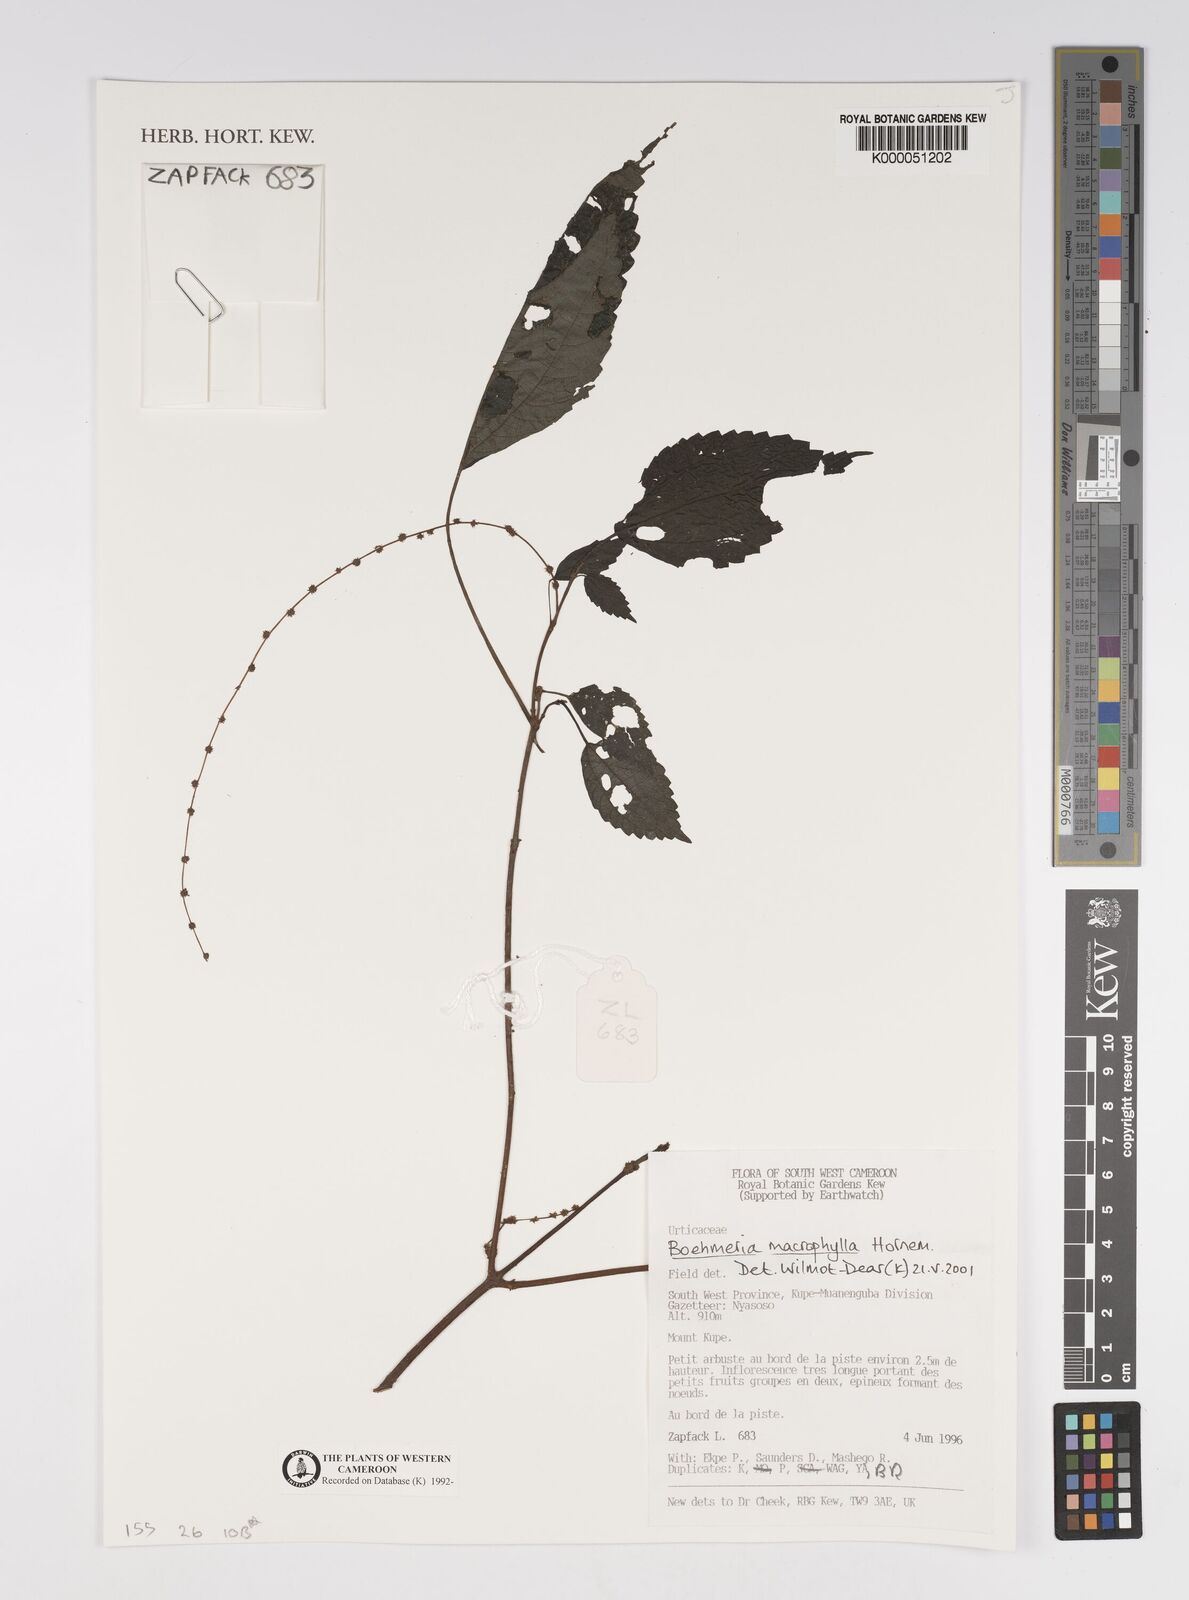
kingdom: Plantae
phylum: Tracheophyta
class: Magnoliopsida
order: Rosales
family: Urticaceae
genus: Boehmeria
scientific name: Boehmeria virgata
